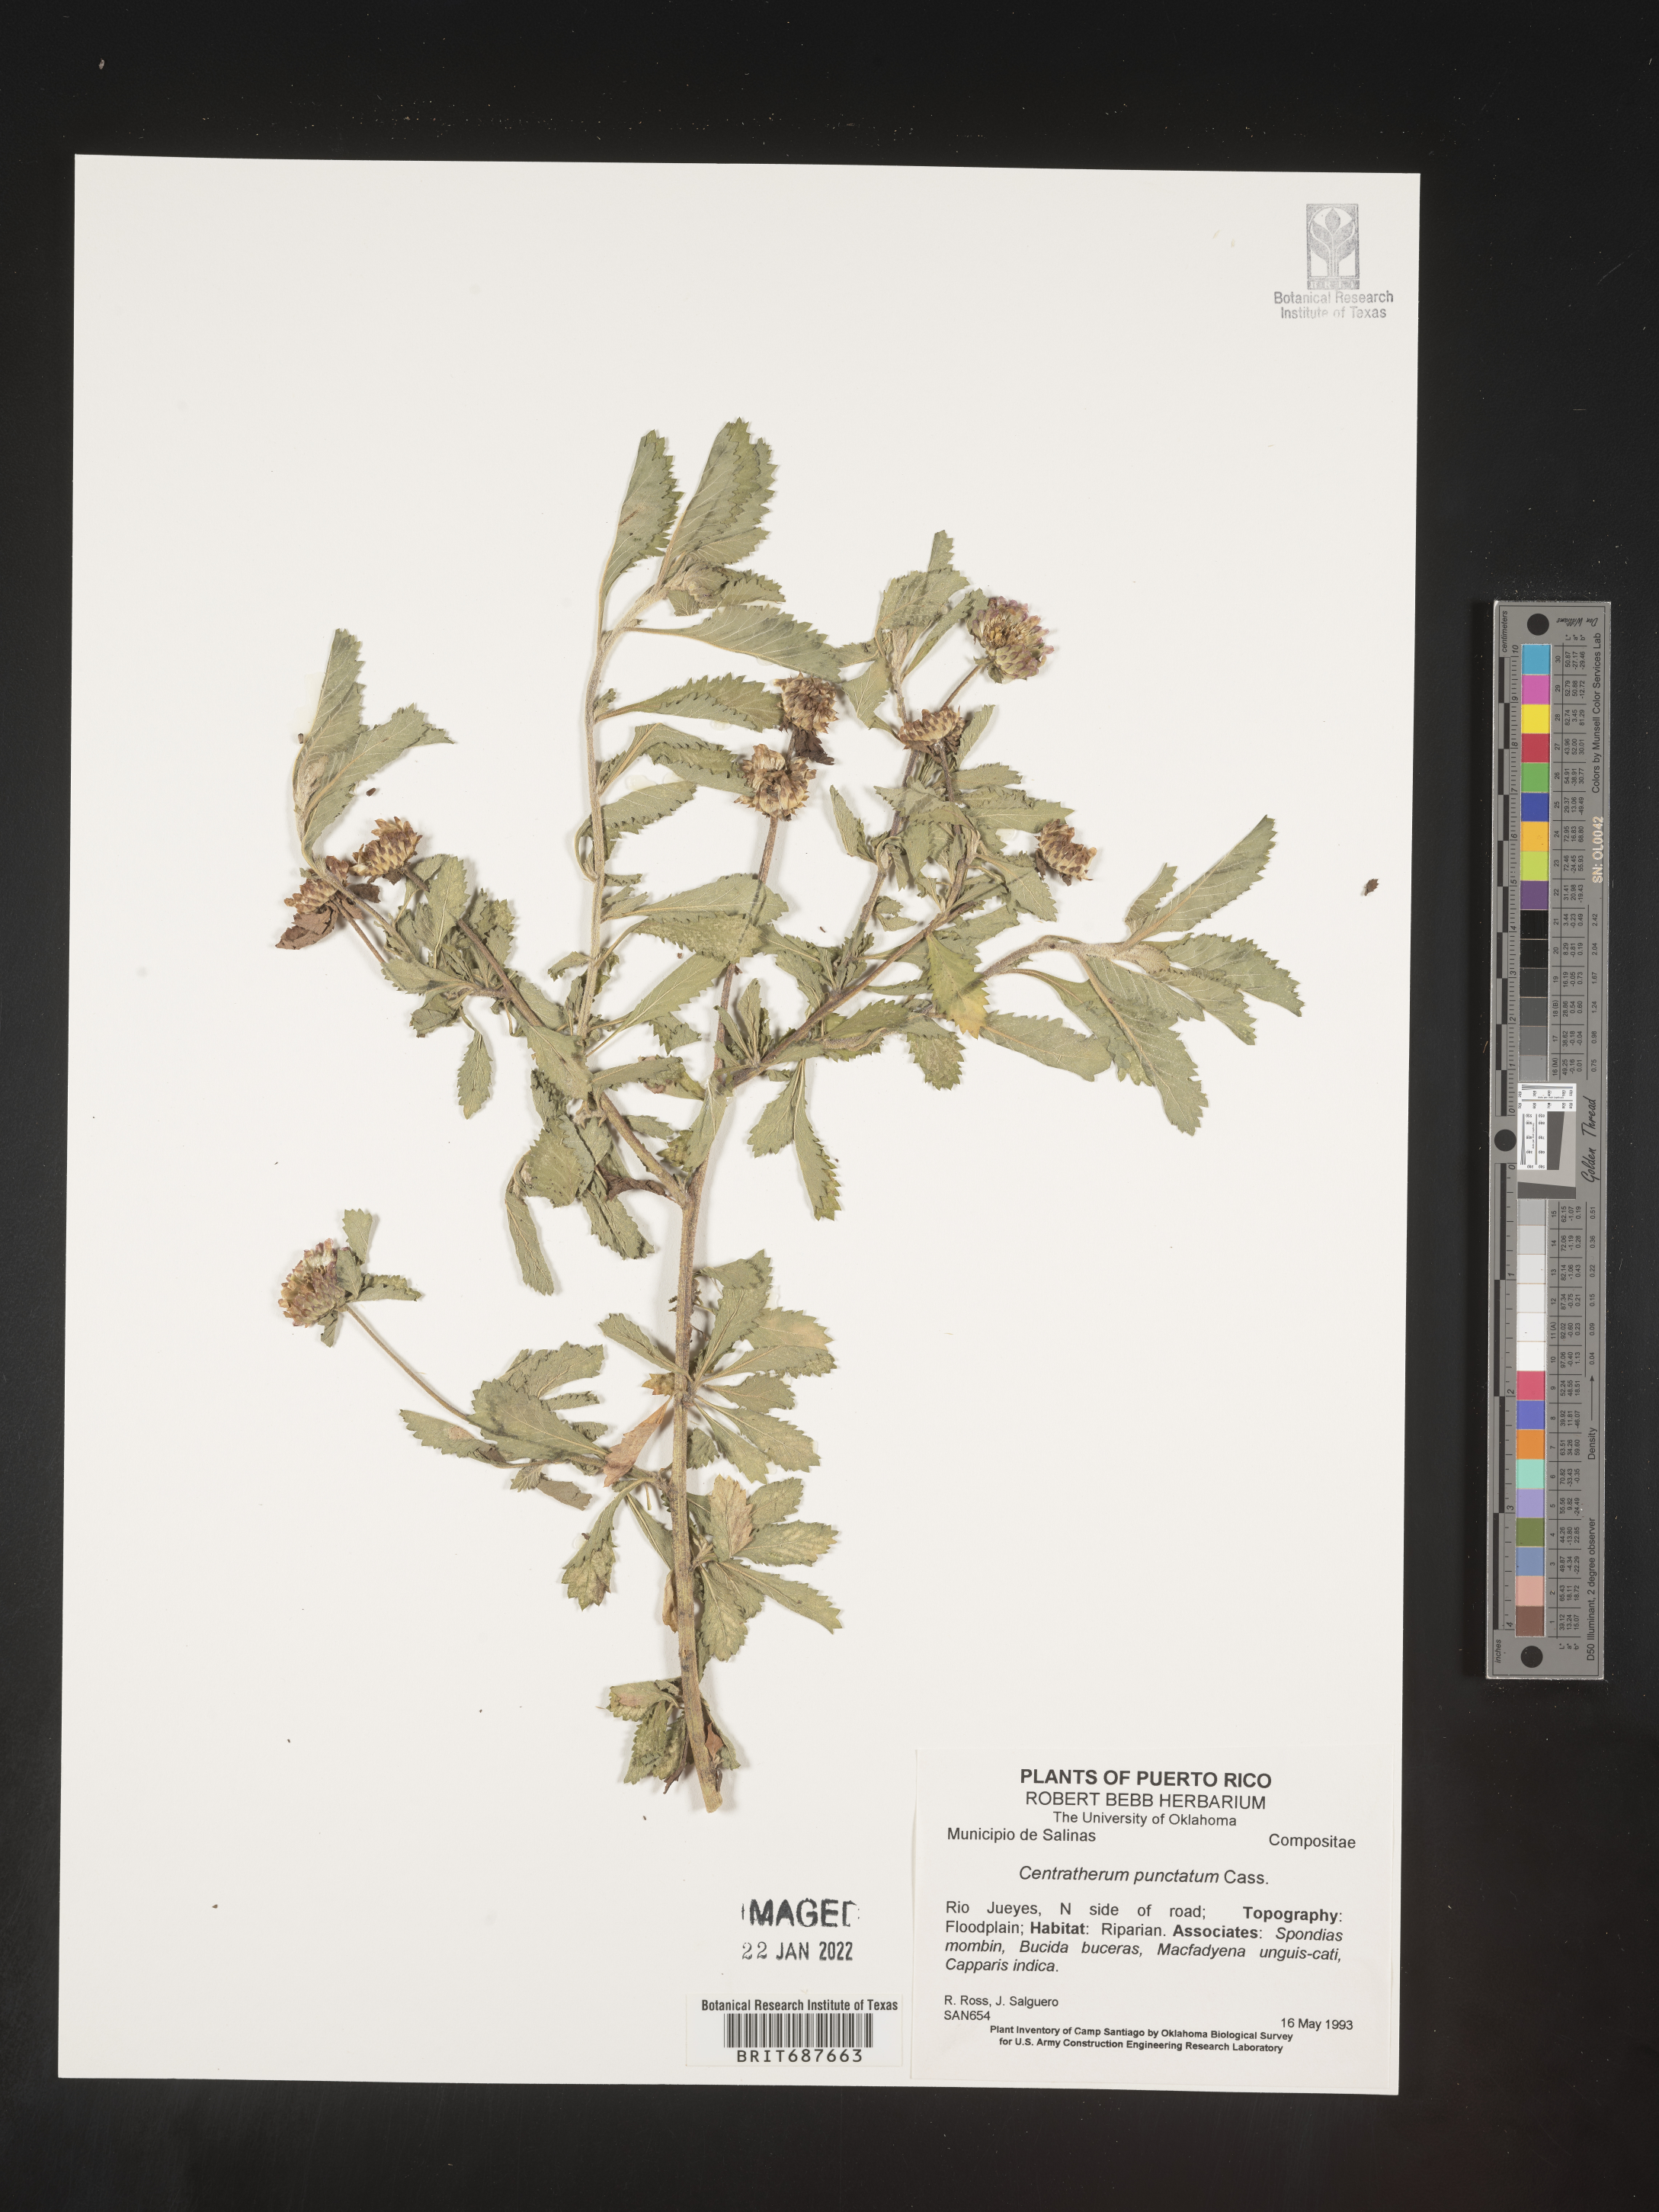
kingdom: Plantae
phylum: Tracheophyta
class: Magnoliopsida
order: Asterales
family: Asteraceae
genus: Centratherum
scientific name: Centratherum
